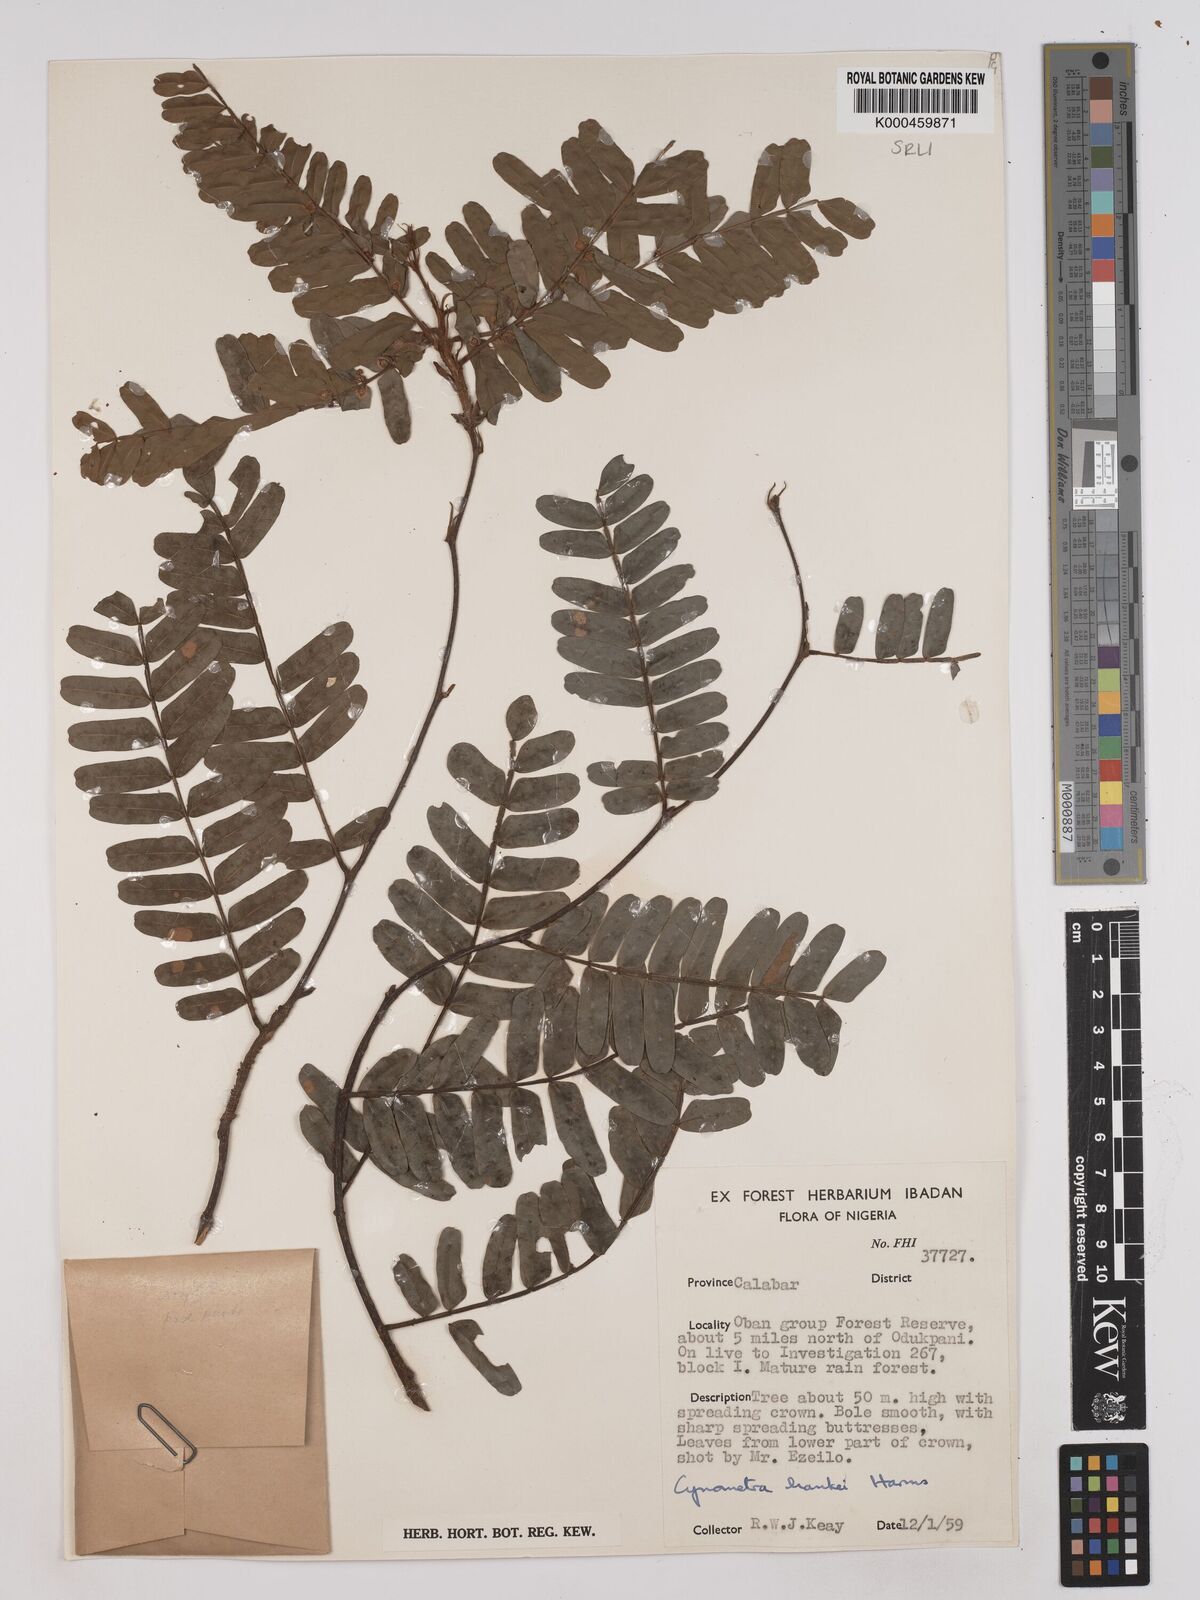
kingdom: Plantae
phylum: Tracheophyta
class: Magnoliopsida
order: Fabales
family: Fabaceae
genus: Cynometra
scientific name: Cynometra hankei
